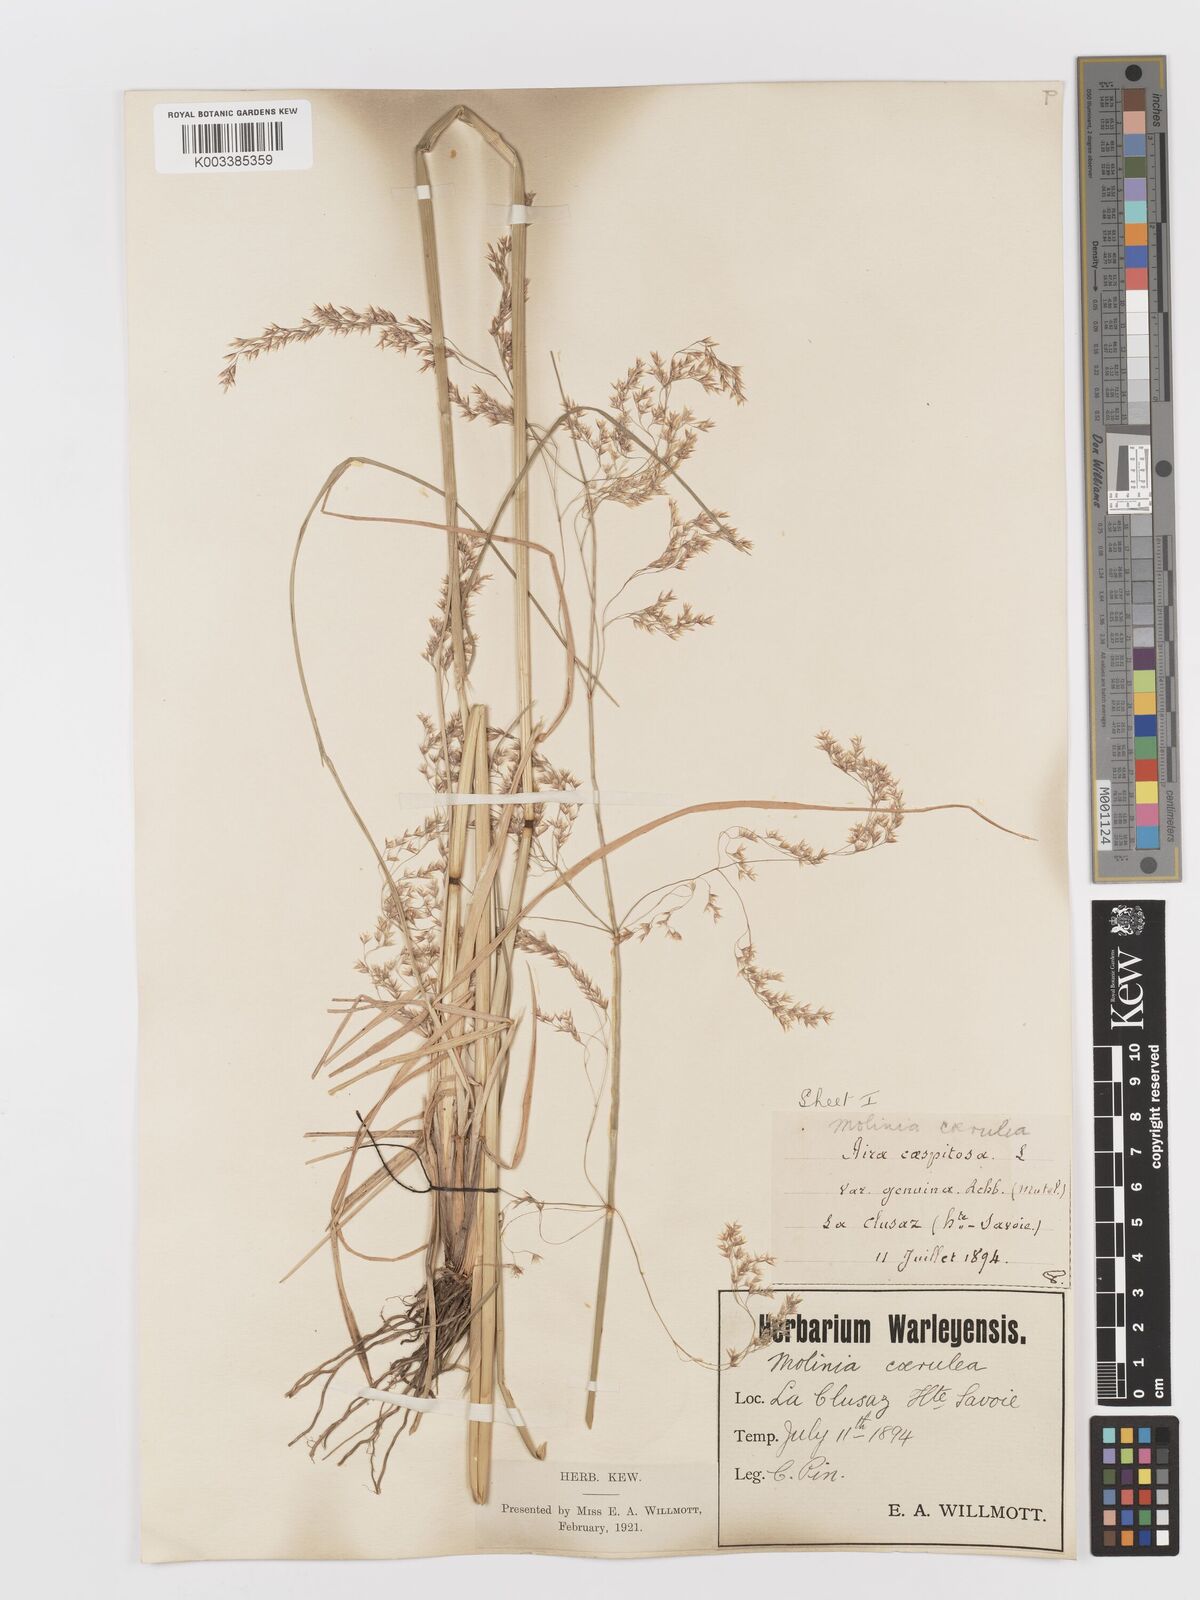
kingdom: Plantae
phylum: Tracheophyta
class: Liliopsida
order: Poales
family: Poaceae
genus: Deschampsia
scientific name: Deschampsia cespitosa
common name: Tufted hair-grass
